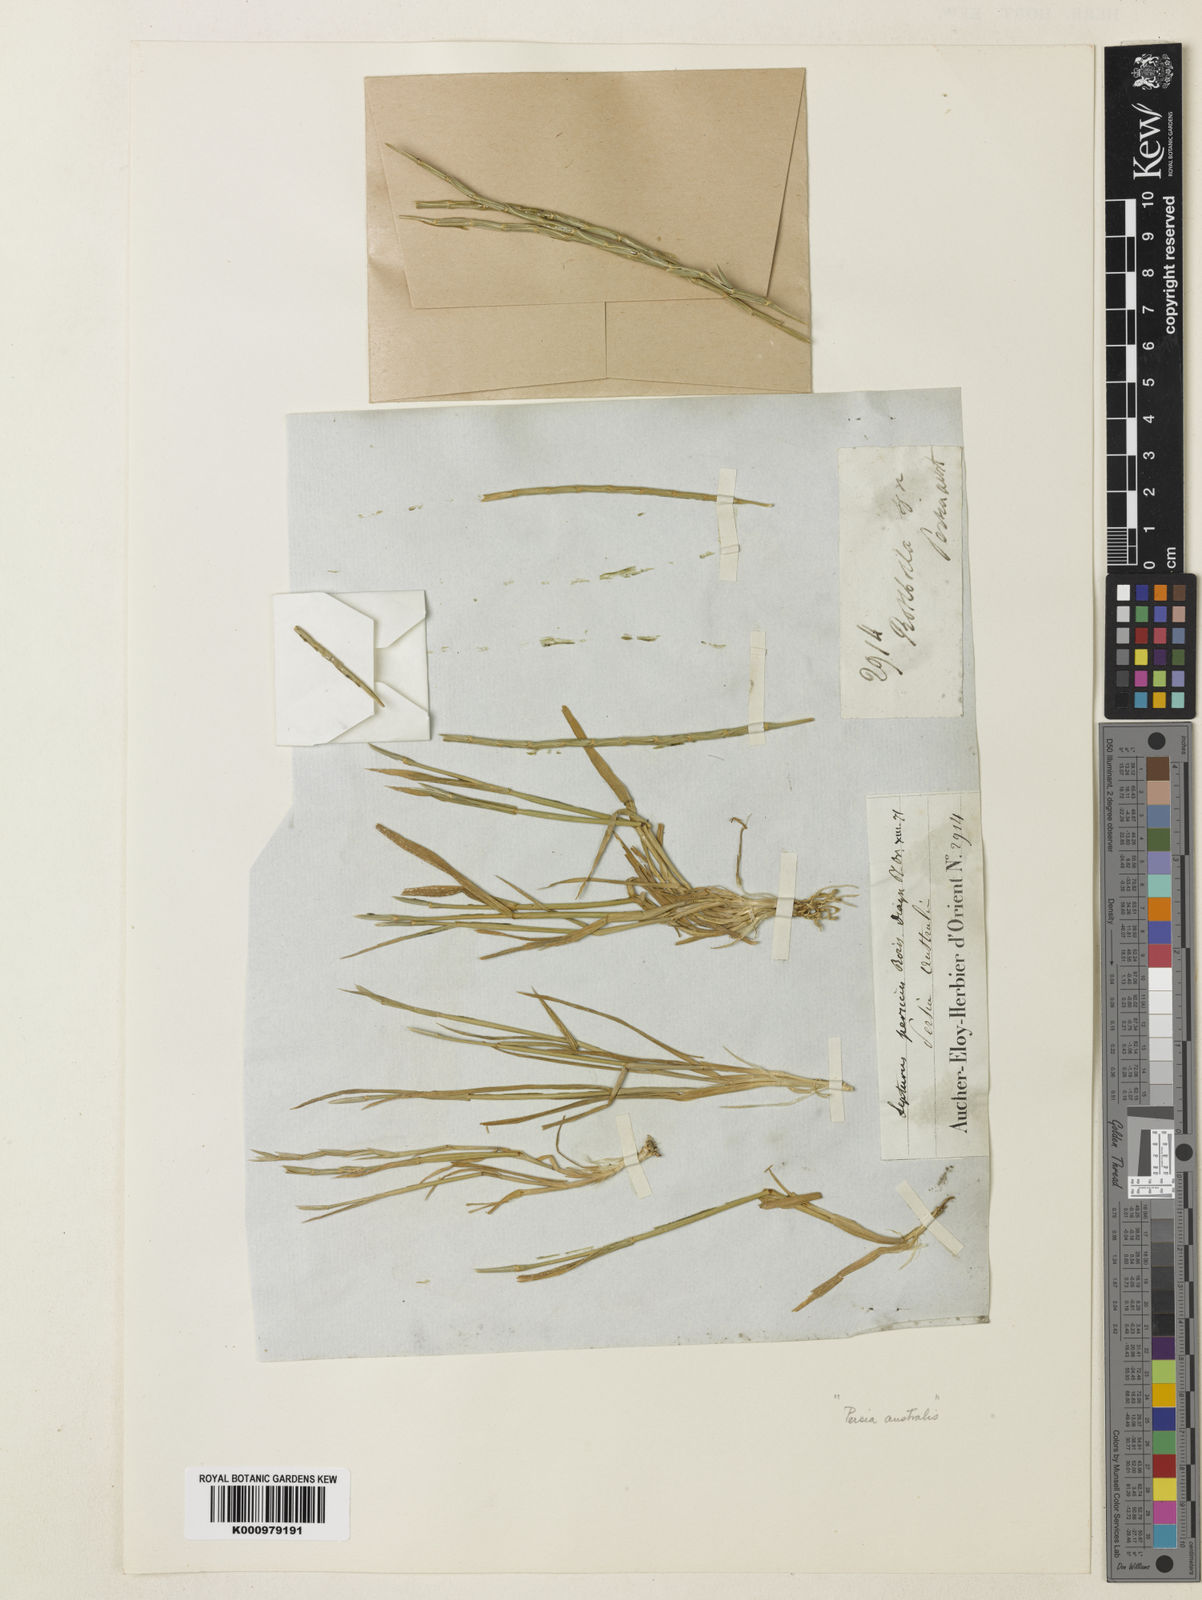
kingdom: Plantae
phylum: Tracheophyta
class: Liliopsida
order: Poales
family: Poaceae
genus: Henrardia
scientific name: Henrardia persica
